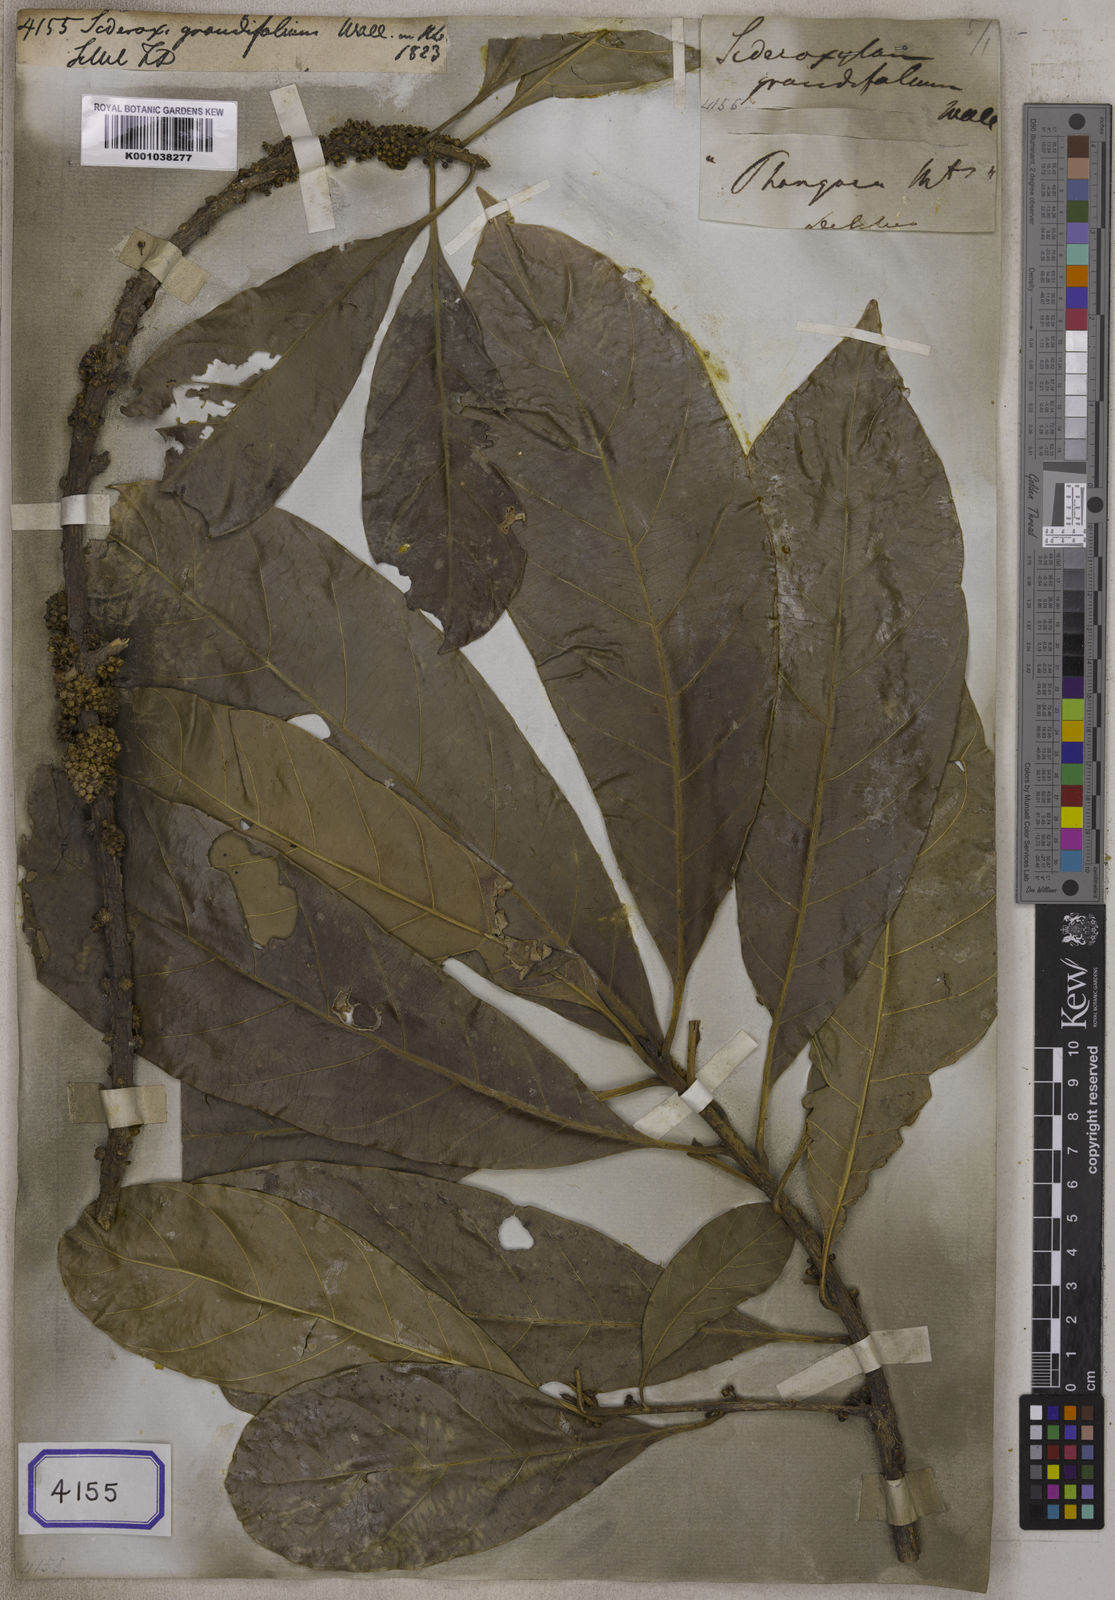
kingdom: Plantae
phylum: Tracheophyta
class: Magnoliopsida
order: Ericales
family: Sapotaceae
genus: Planchonella
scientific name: Planchonella grandifolia
